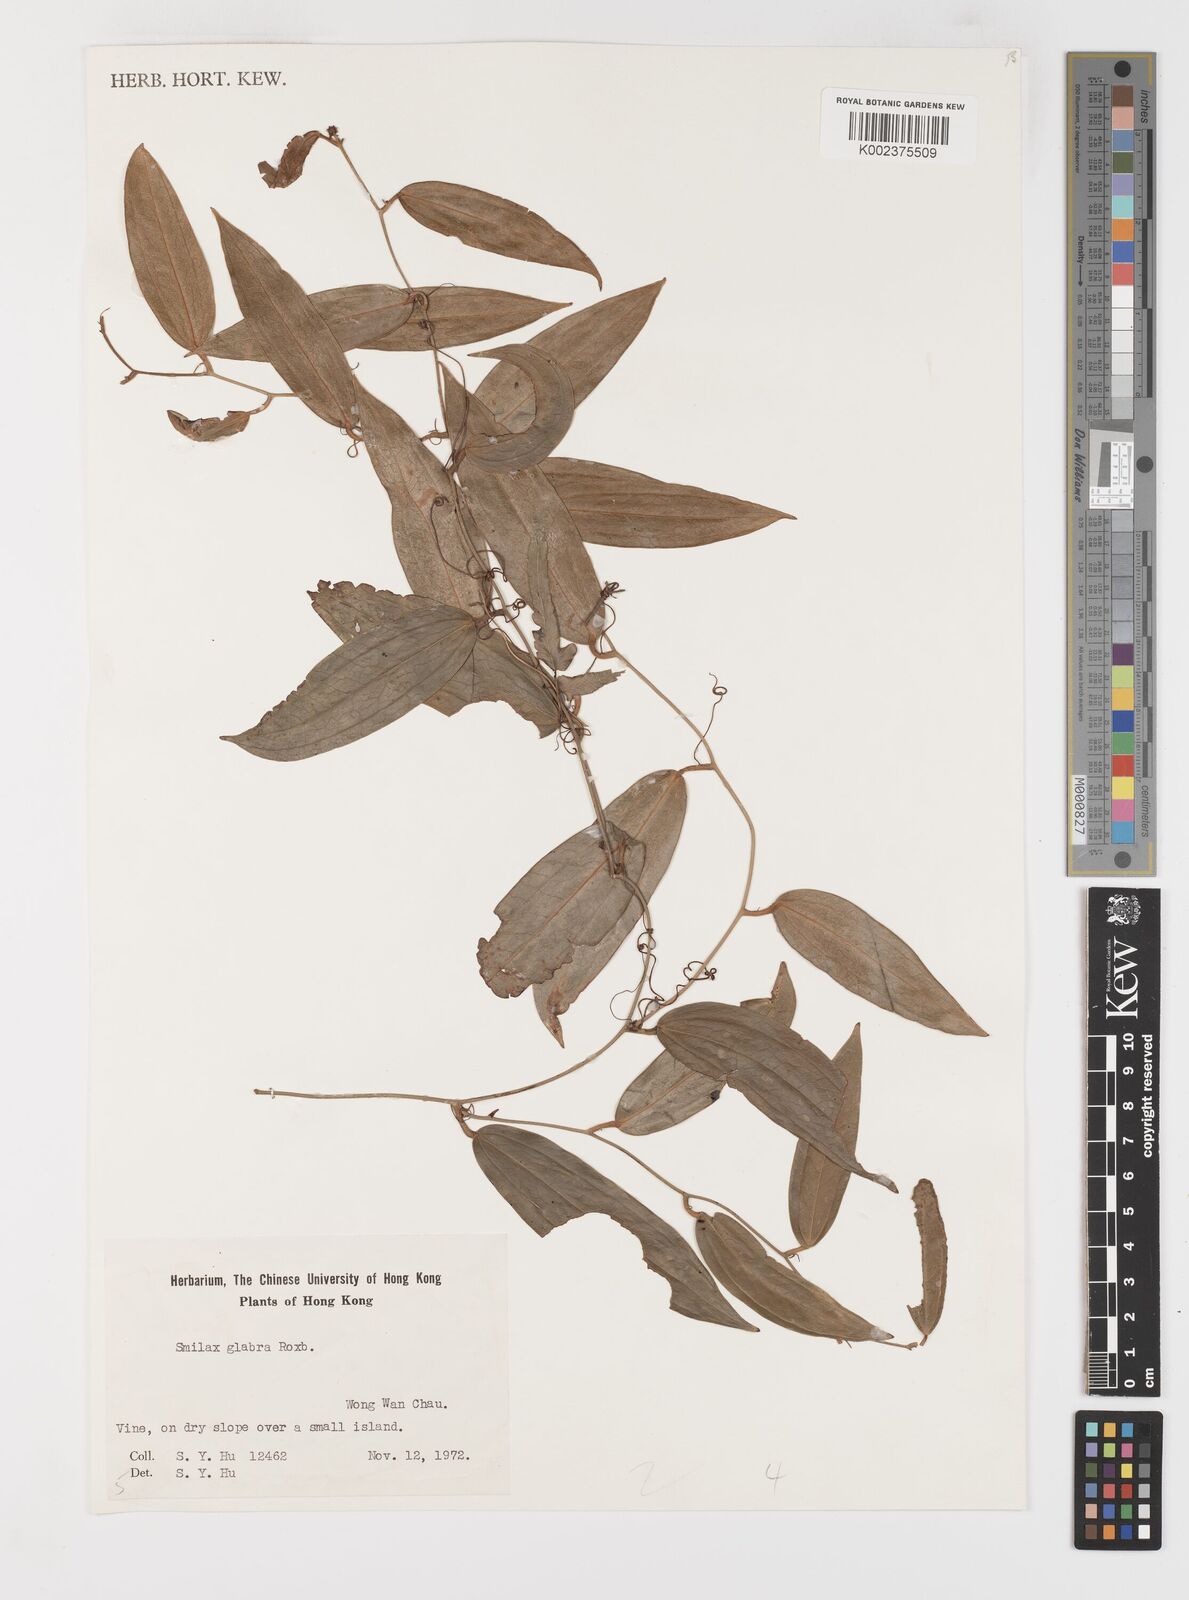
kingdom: Plantae
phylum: Tracheophyta
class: Liliopsida
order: Liliales
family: Smilacaceae
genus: Smilax
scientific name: Smilax glabra
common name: Chinese smilax
